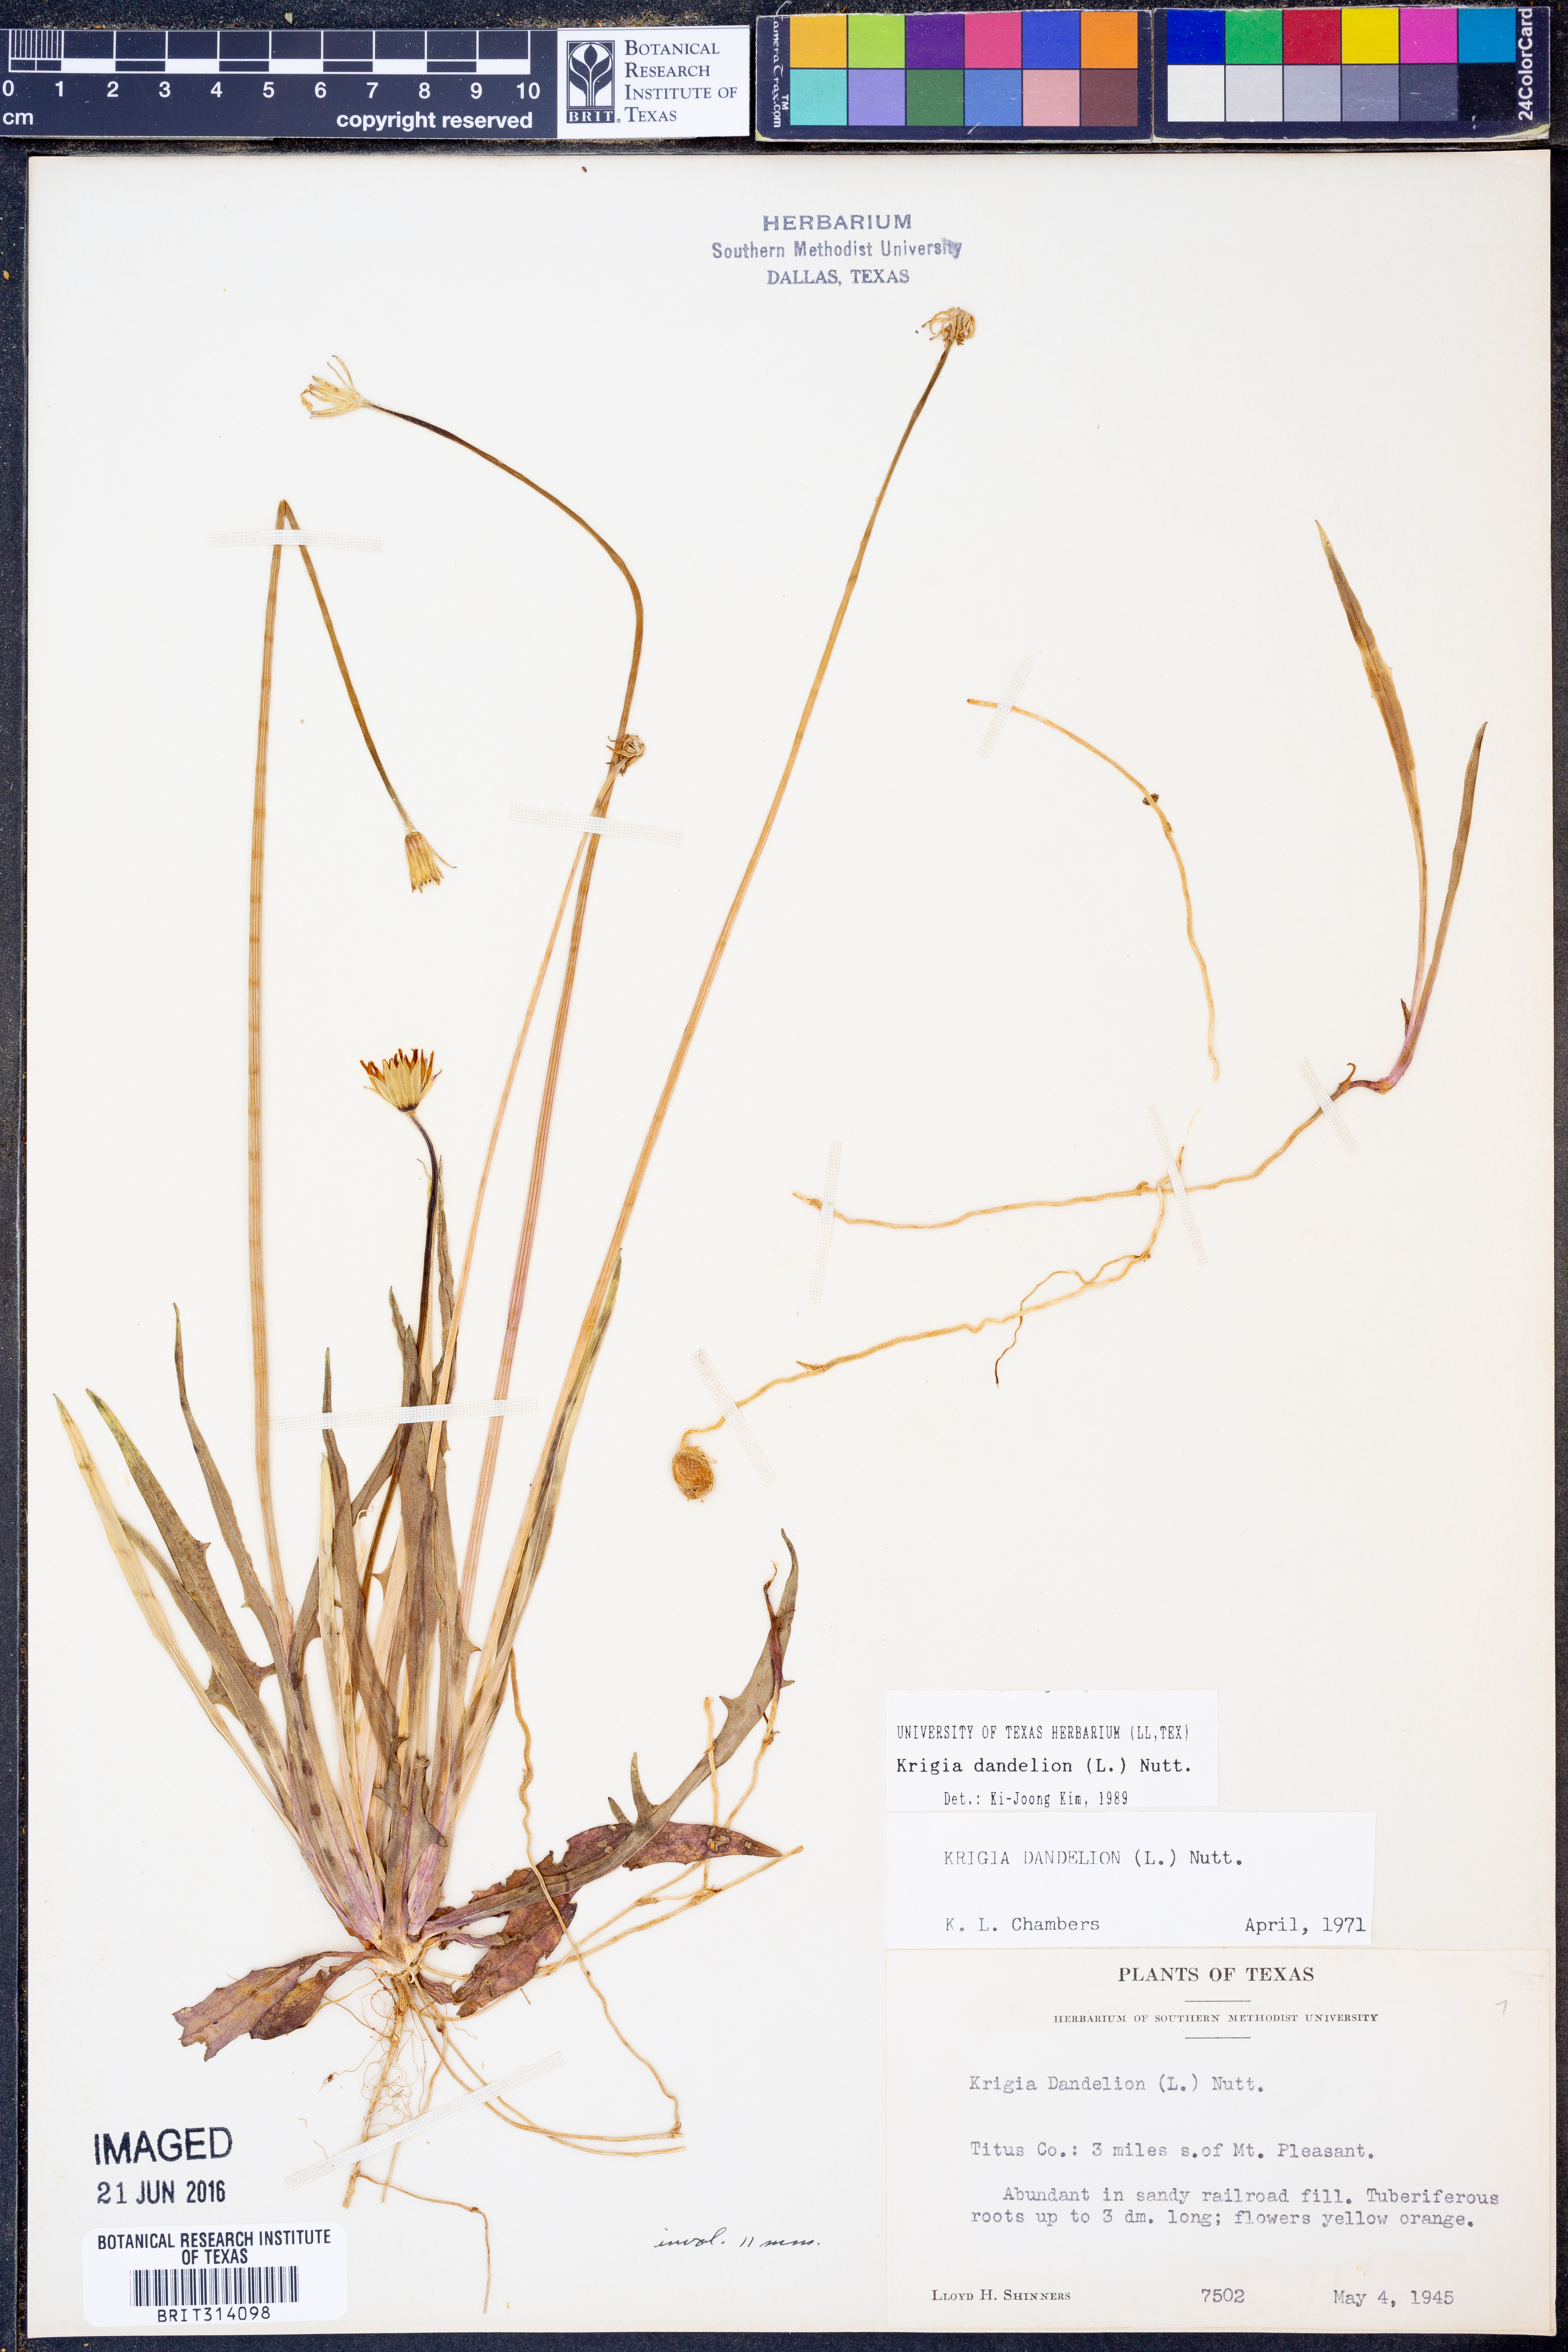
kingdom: Plantae
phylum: Tracheophyta
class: Magnoliopsida
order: Asterales
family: Asteraceae
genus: Krigia
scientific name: Krigia dandelion
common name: Colonial dwarf-dandelion
